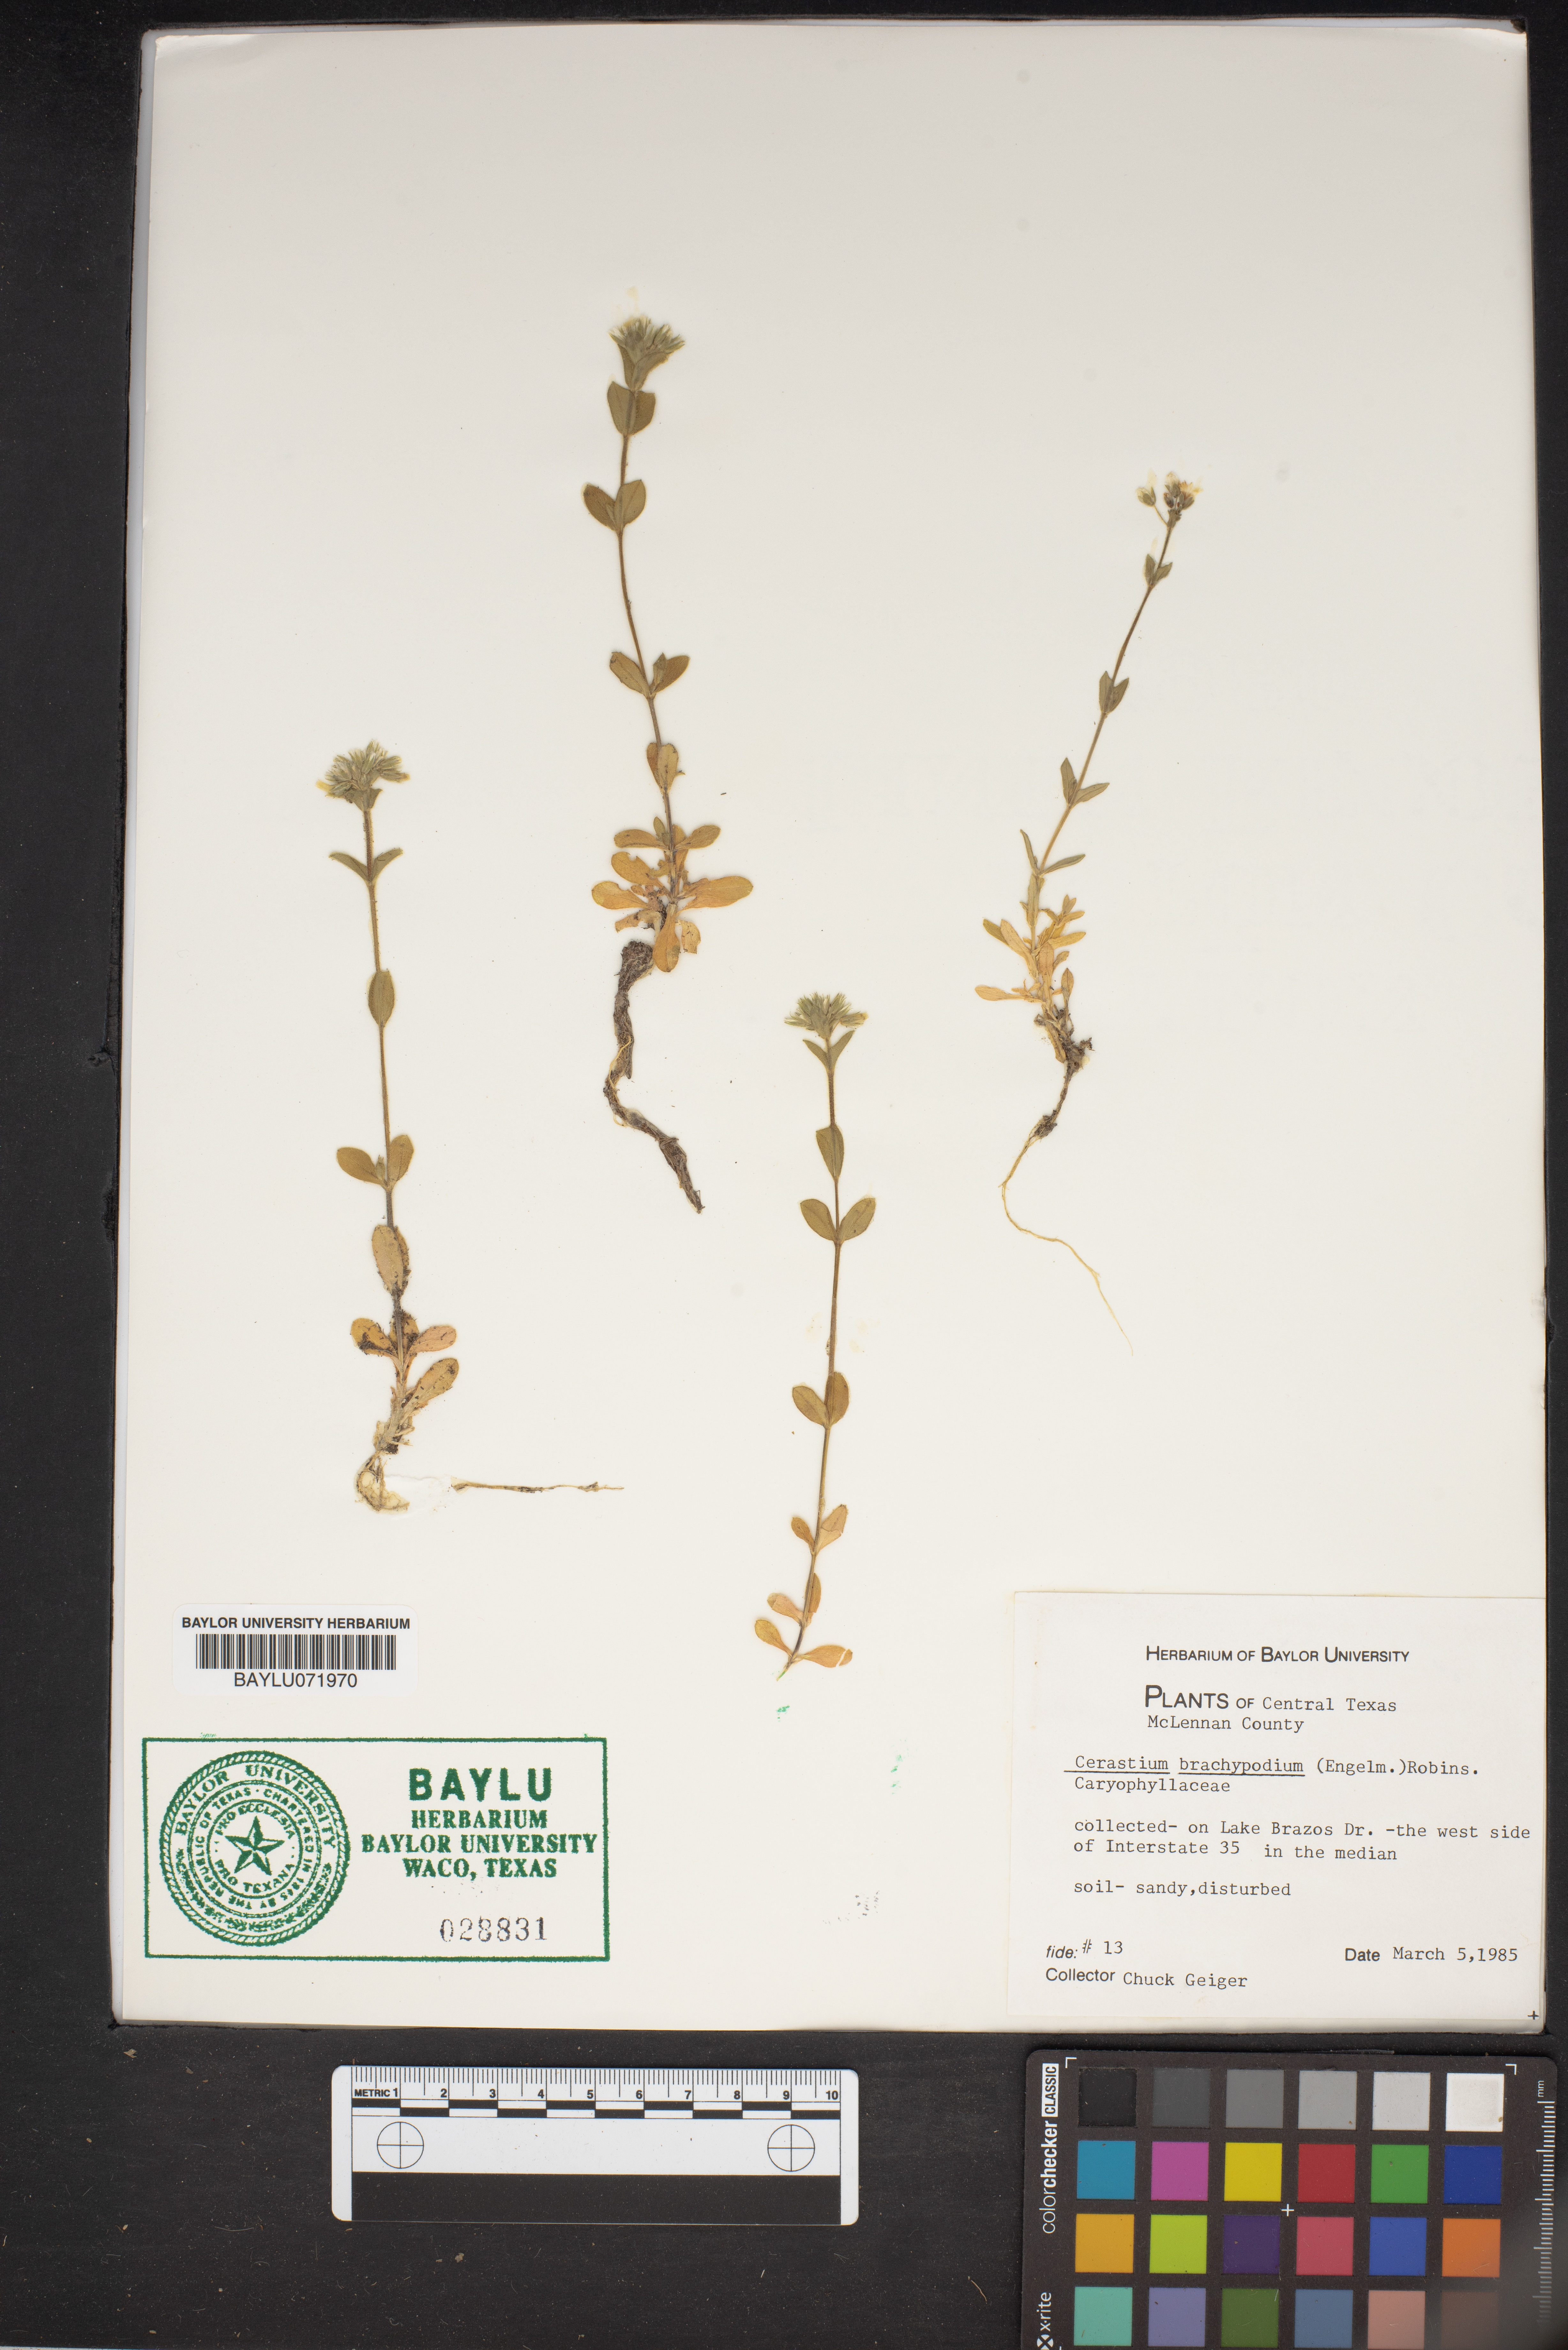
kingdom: Plantae
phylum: Tracheophyta
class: Magnoliopsida
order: Caryophyllales
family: Caryophyllaceae
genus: Cerastium
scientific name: Cerastium brachypodum
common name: Short-pedicelled nodding chickweed
